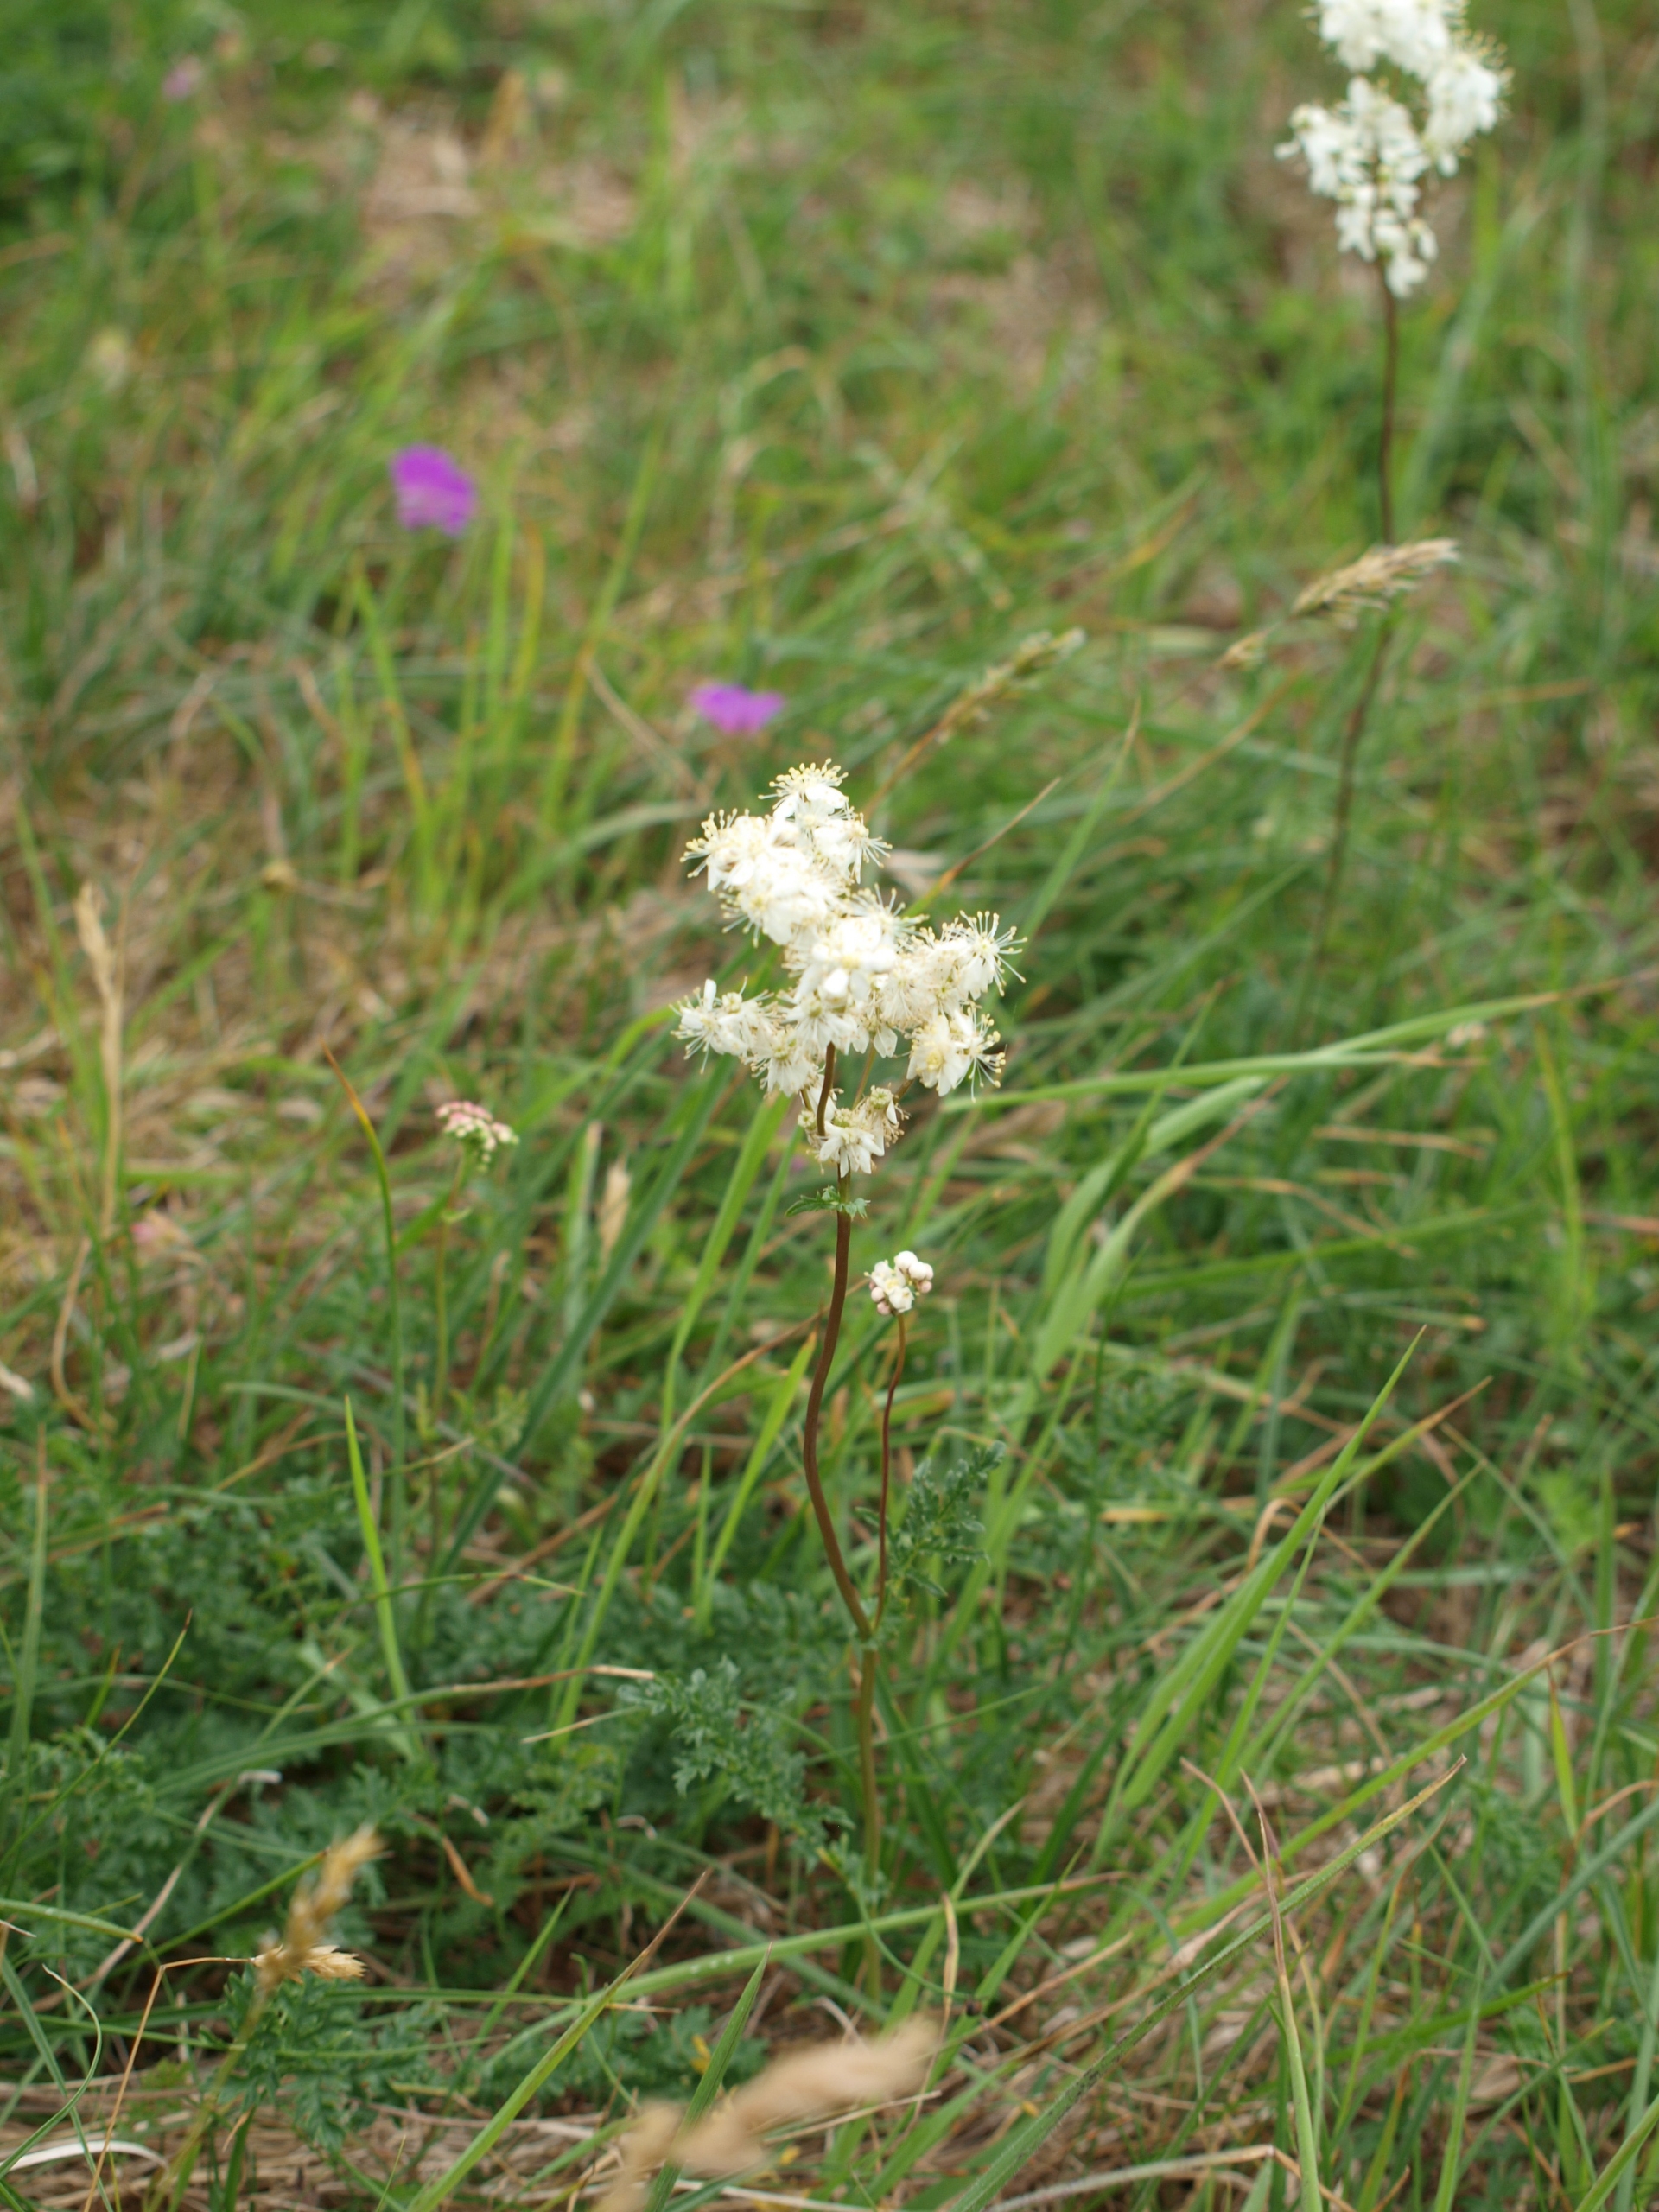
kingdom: Plantae
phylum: Tracheophyta
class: Magnoliopsida
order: Rosales
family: Rosaceae
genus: Filipendula
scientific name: Filipendula vulgaris
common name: Knoldet mjødurt
